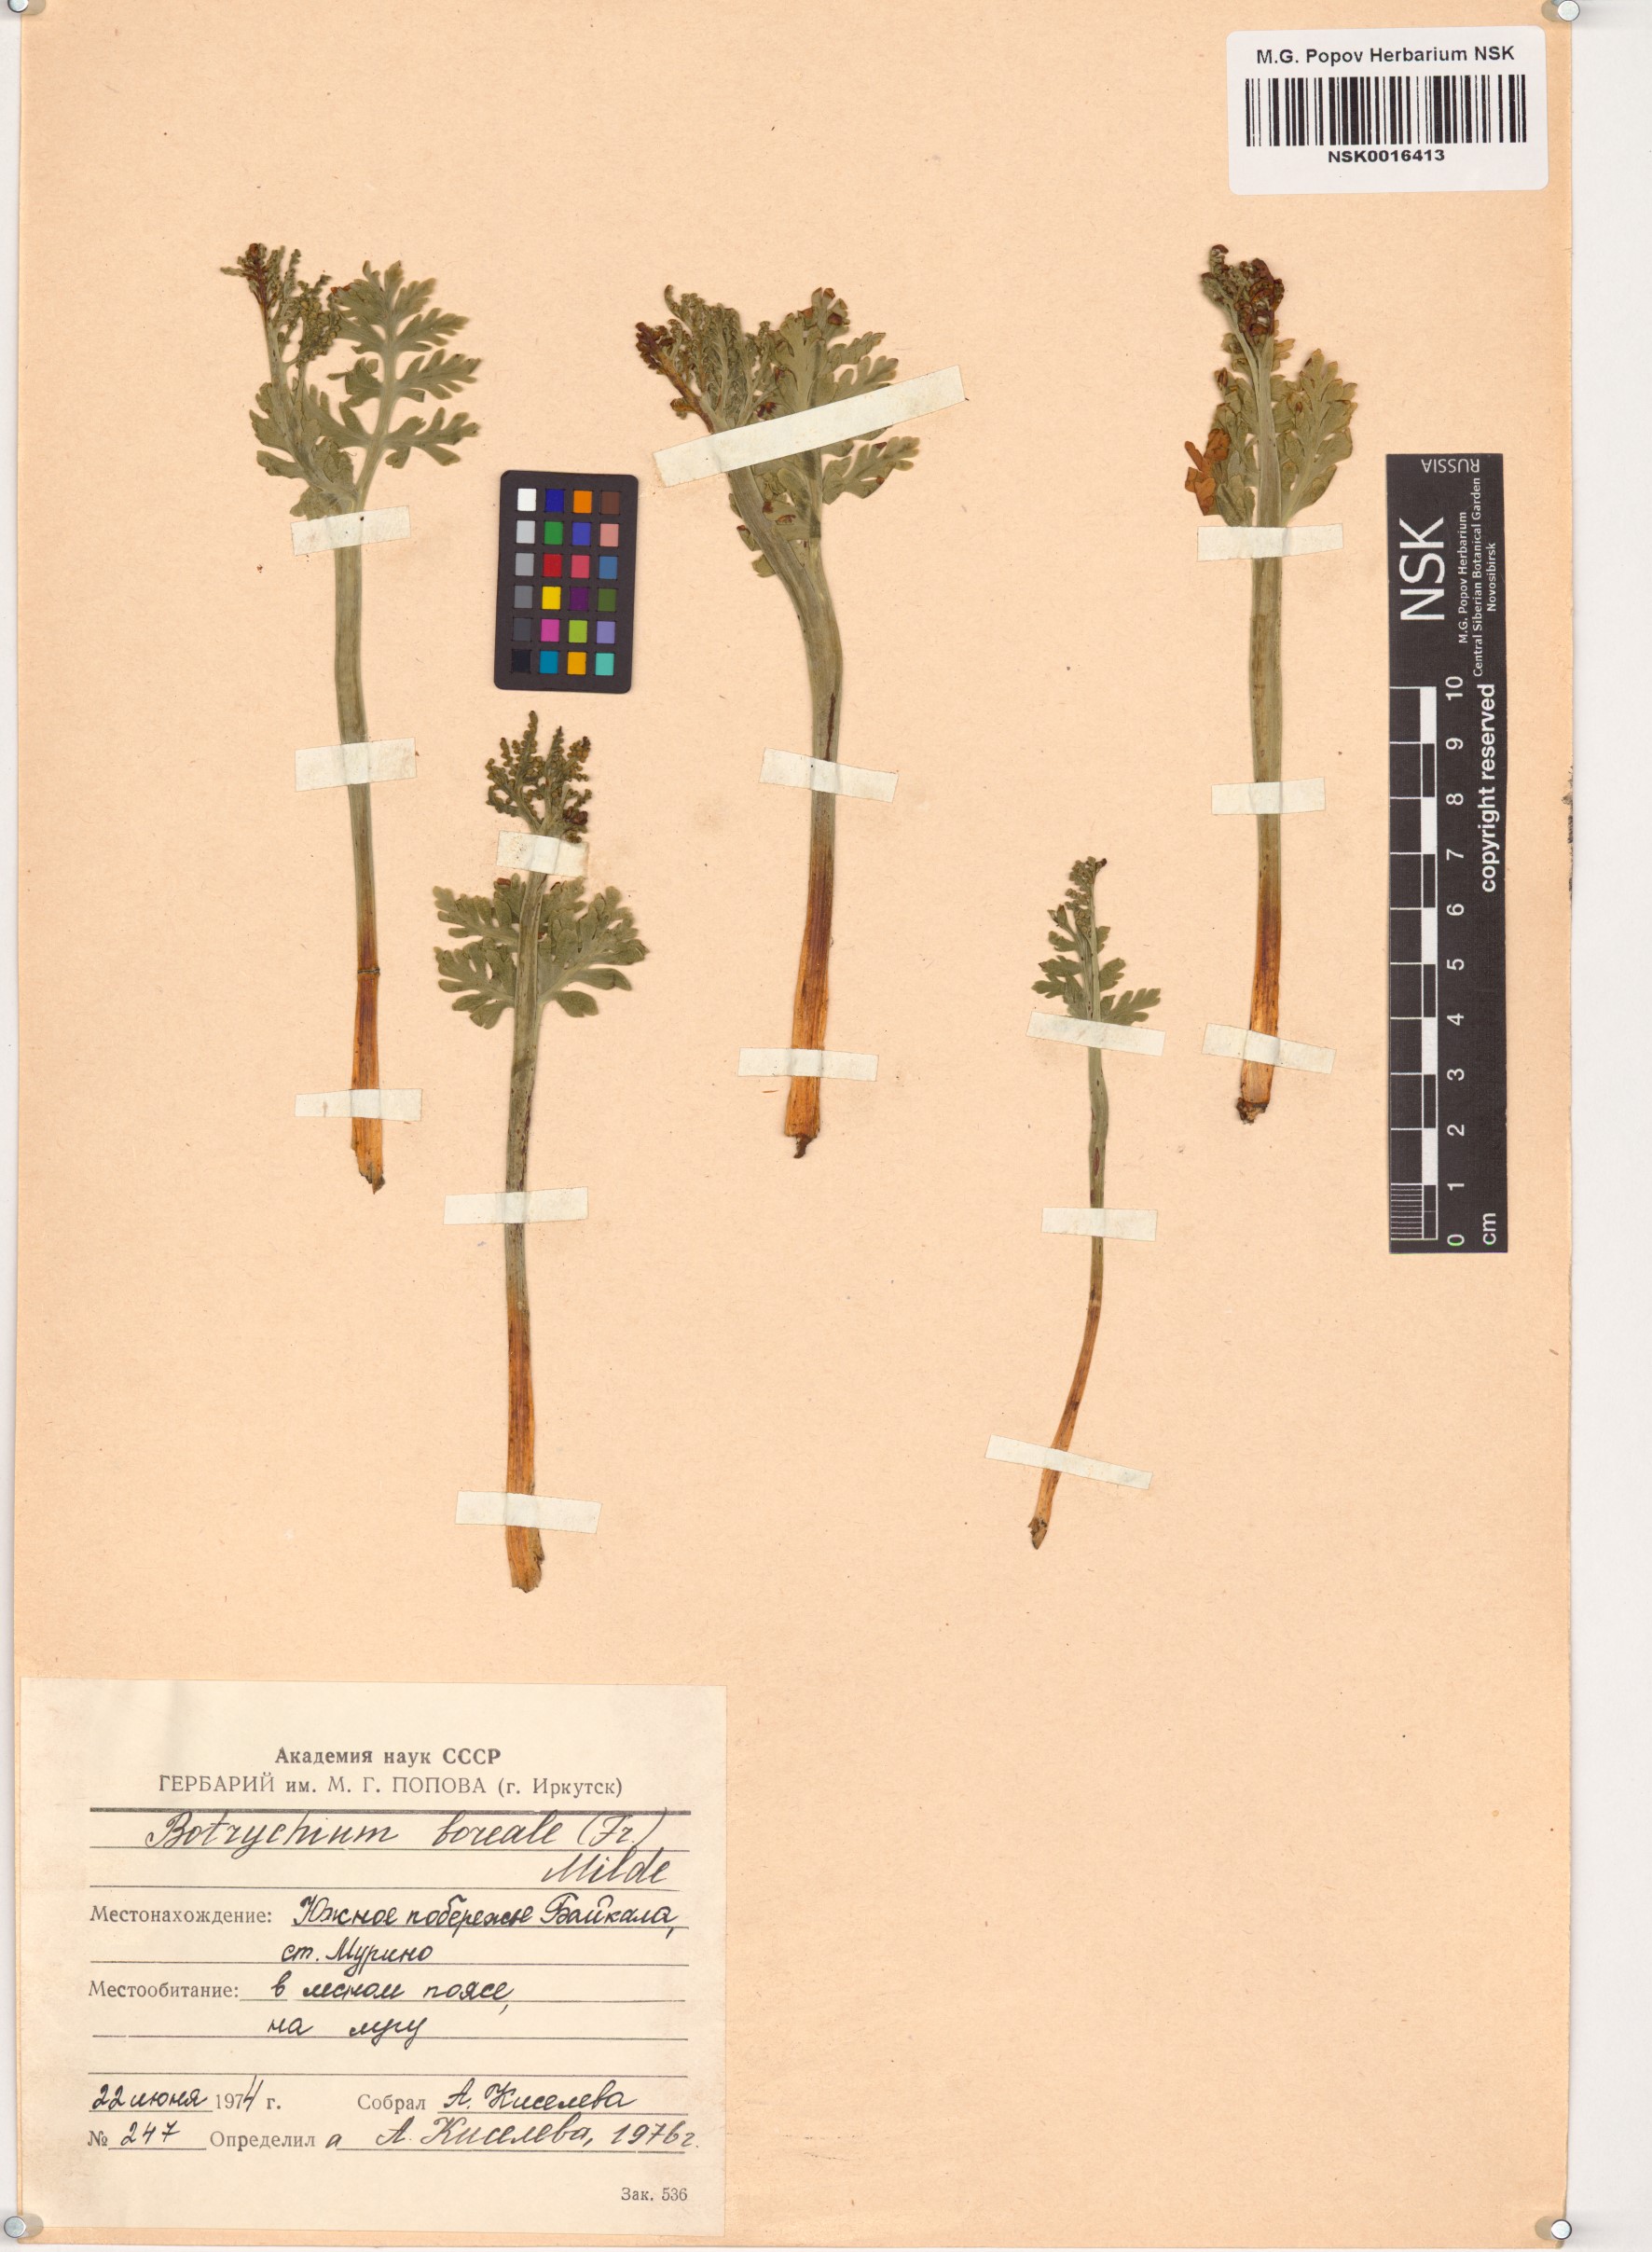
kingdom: Plantae
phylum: Tracheophyta
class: Polypodiopsida
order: Ophioglossales
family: Ophioglossaceae
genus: Botrychium
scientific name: Botrychium boreale
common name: Boreal moonwort
